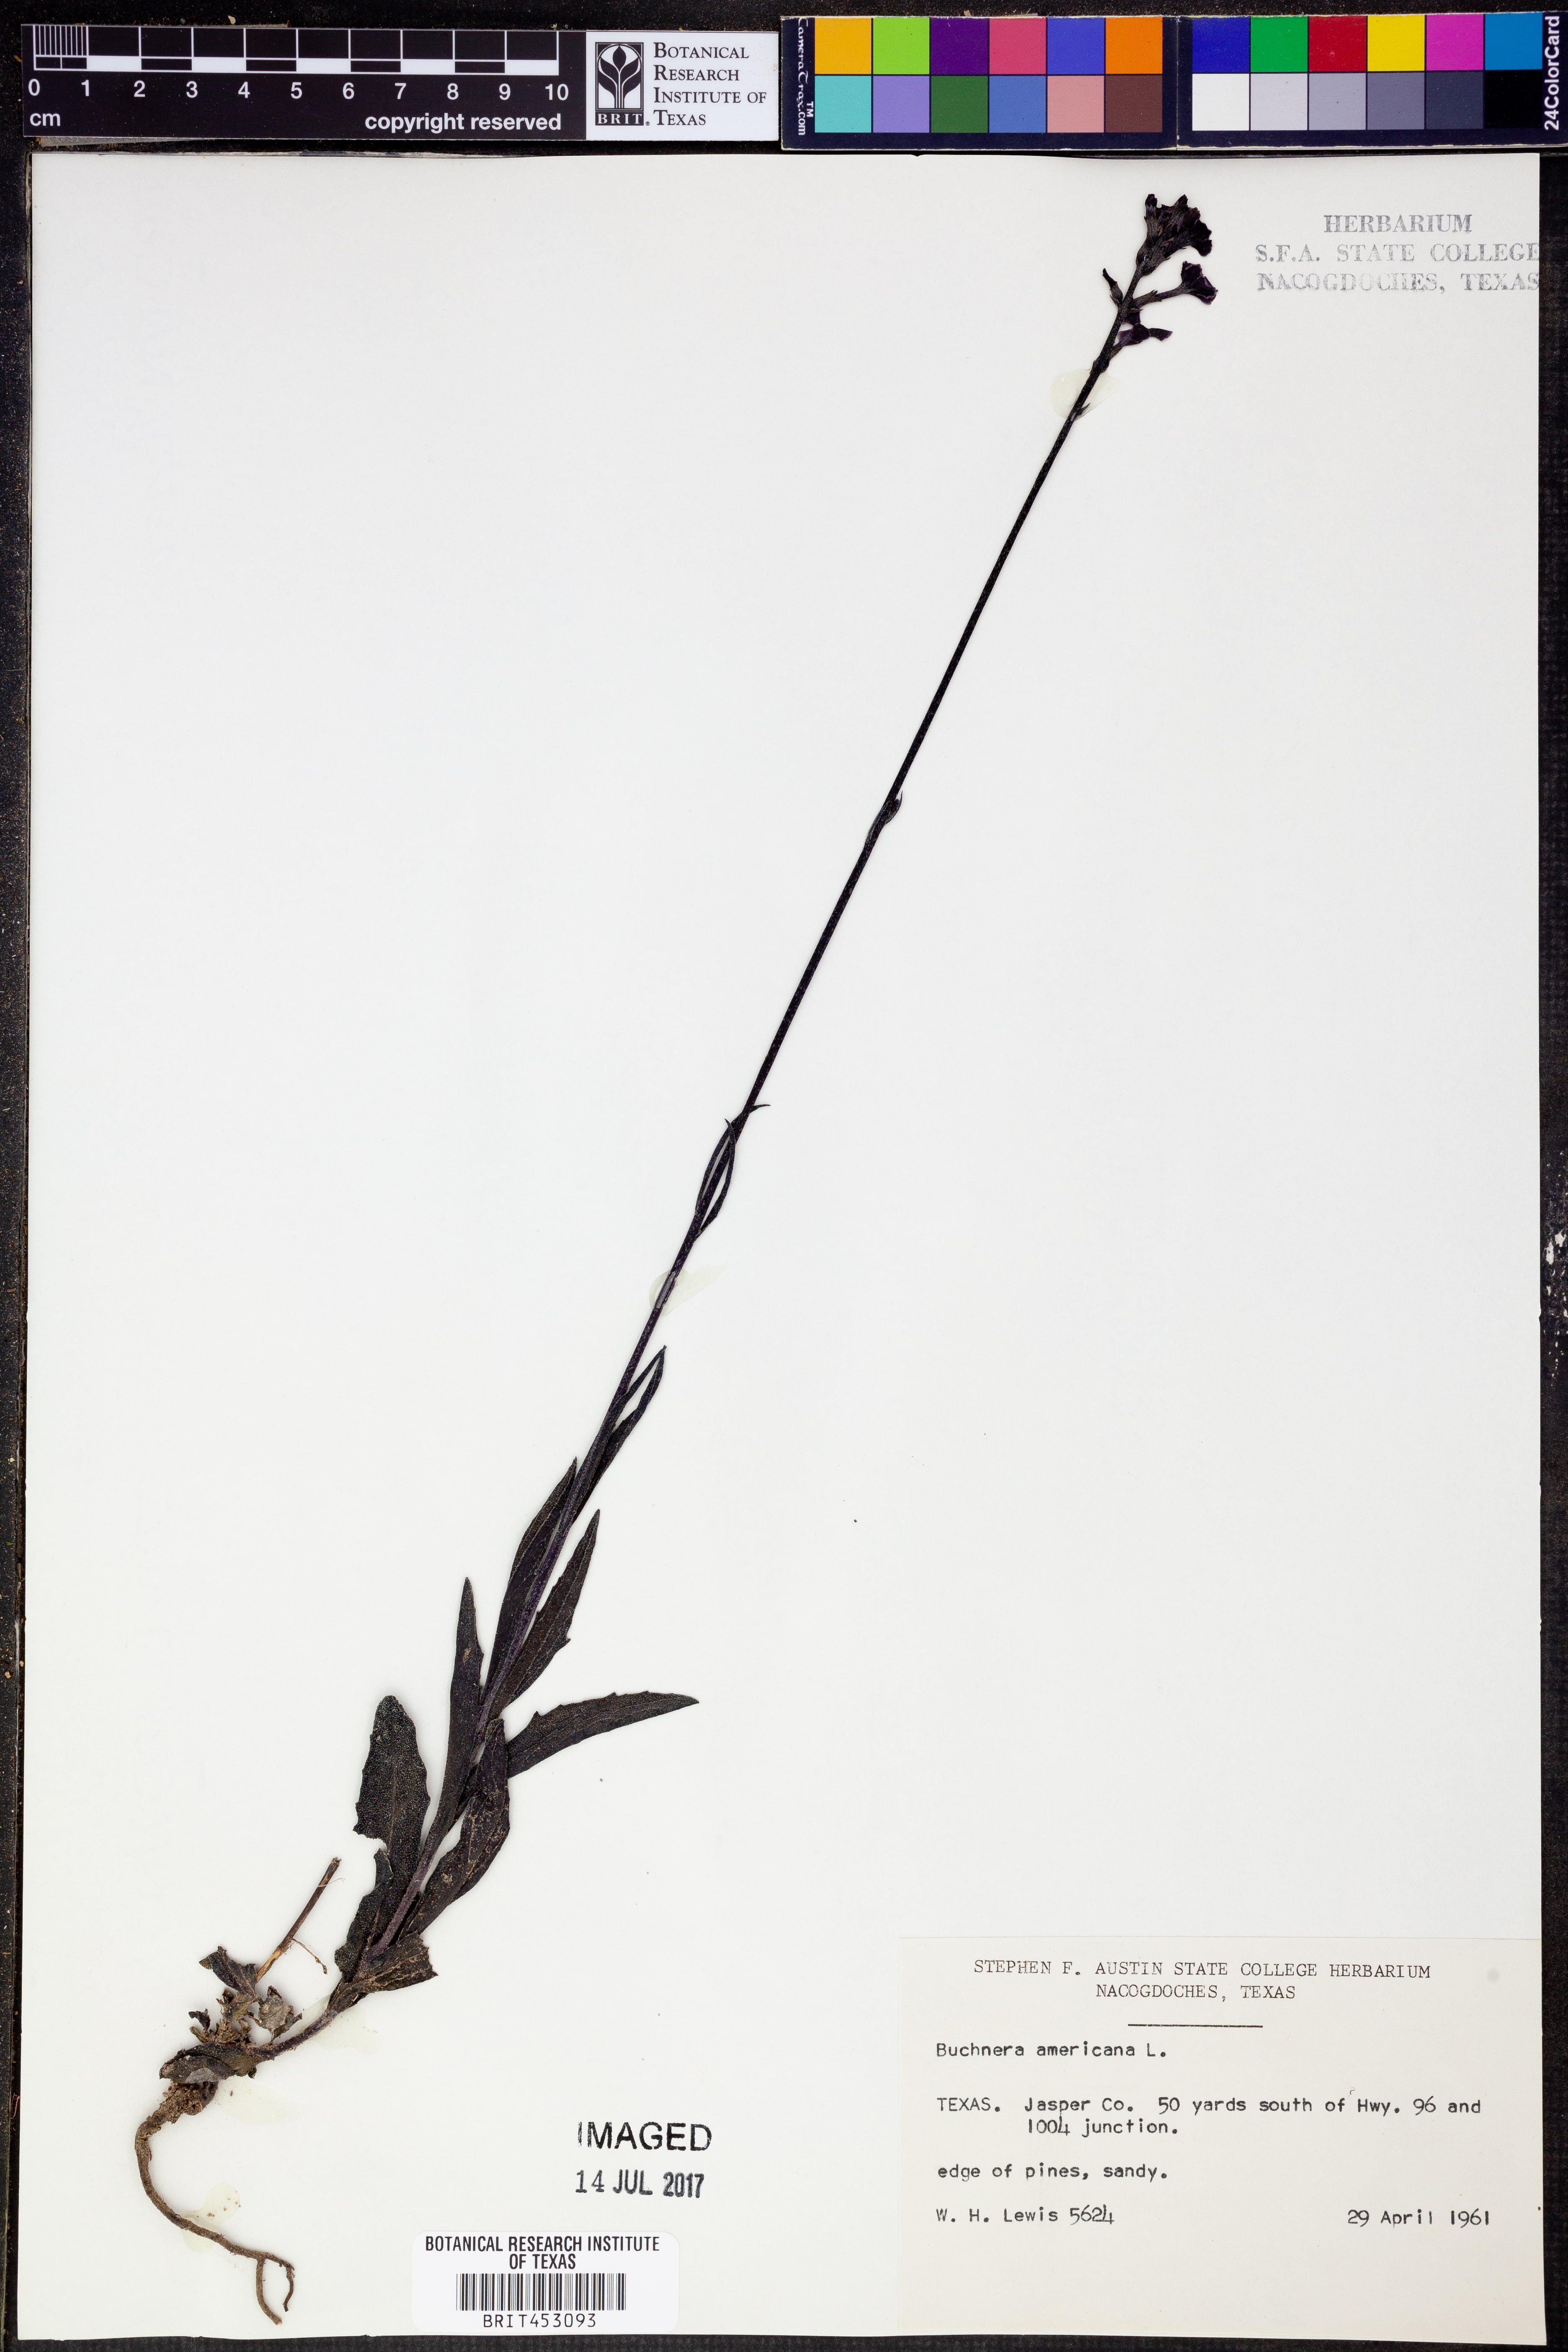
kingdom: Plantae
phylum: Tracheophyta
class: Magnoliopsida
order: Lamiales
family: Orobanchaceae
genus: Buchnera
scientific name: Buchnera americana
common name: American bluehearts
